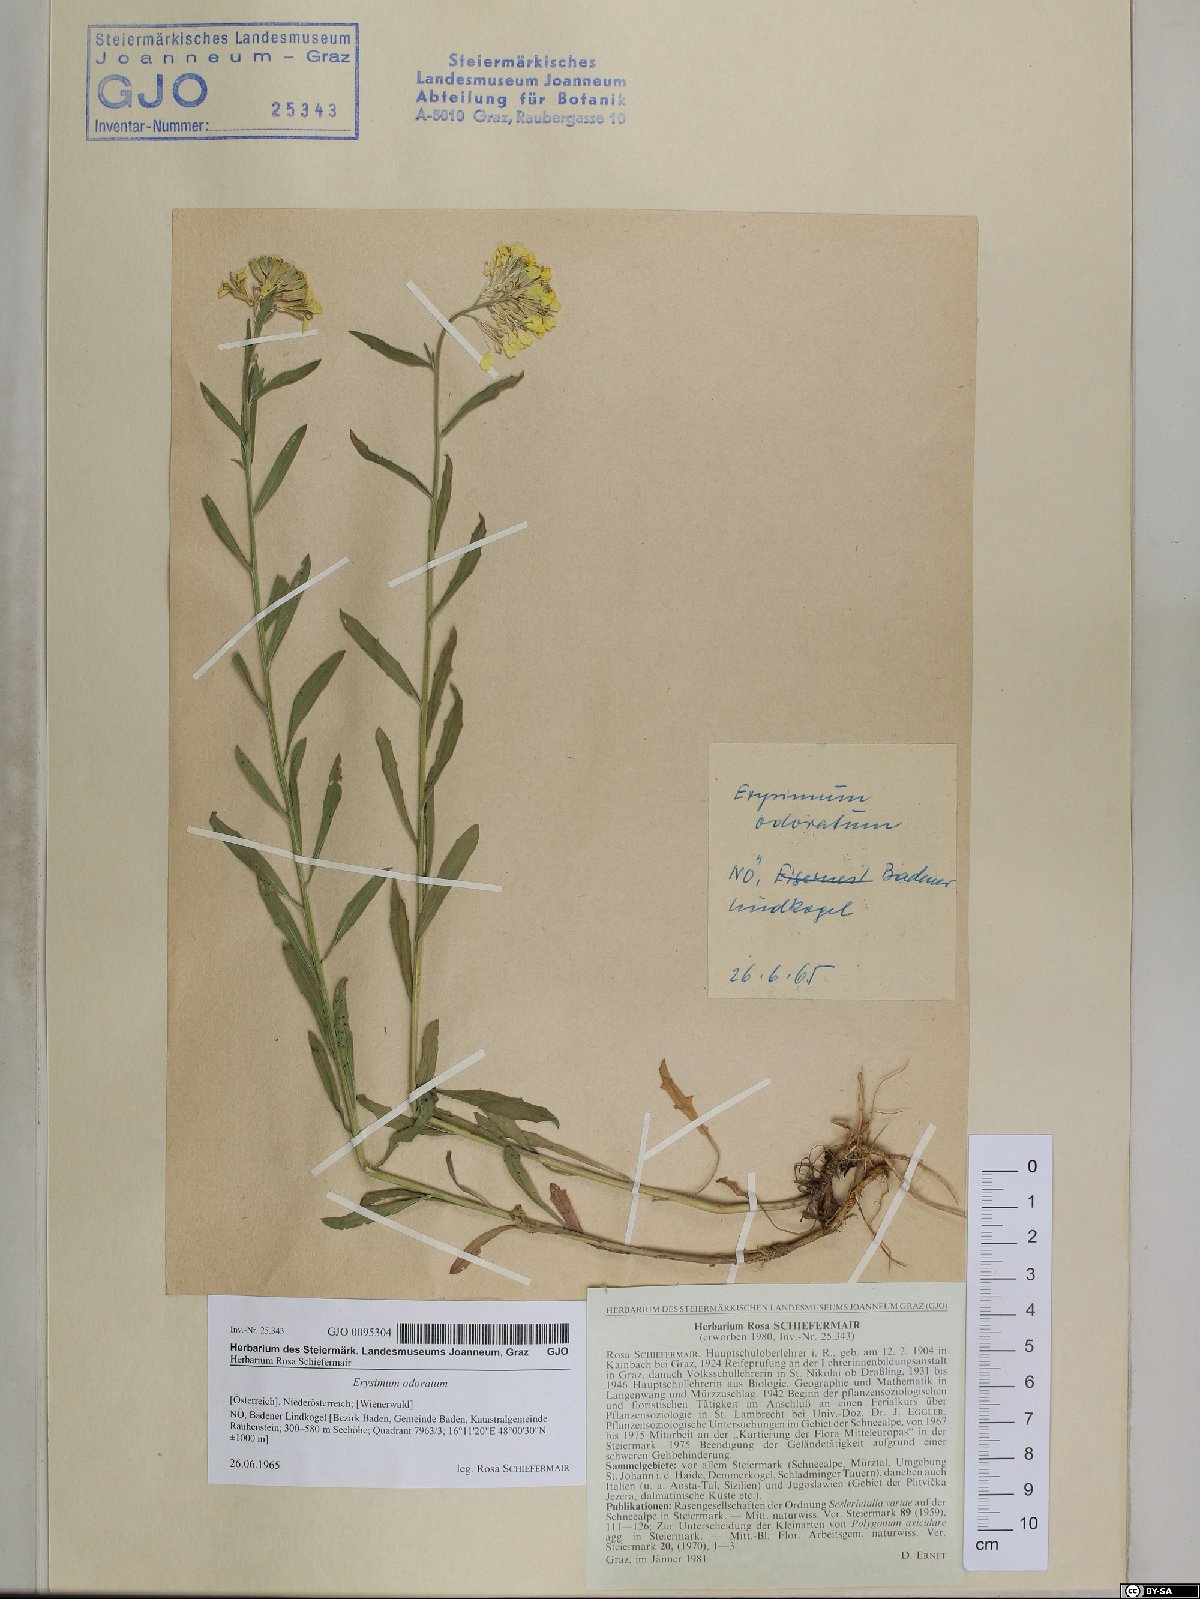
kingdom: Plantae
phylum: Tracheophyta
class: Magnoliopsida
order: Brassicales
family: Brassicaceae
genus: Erysimum
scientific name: Erysimum odoratum
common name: Smelly wallflower
